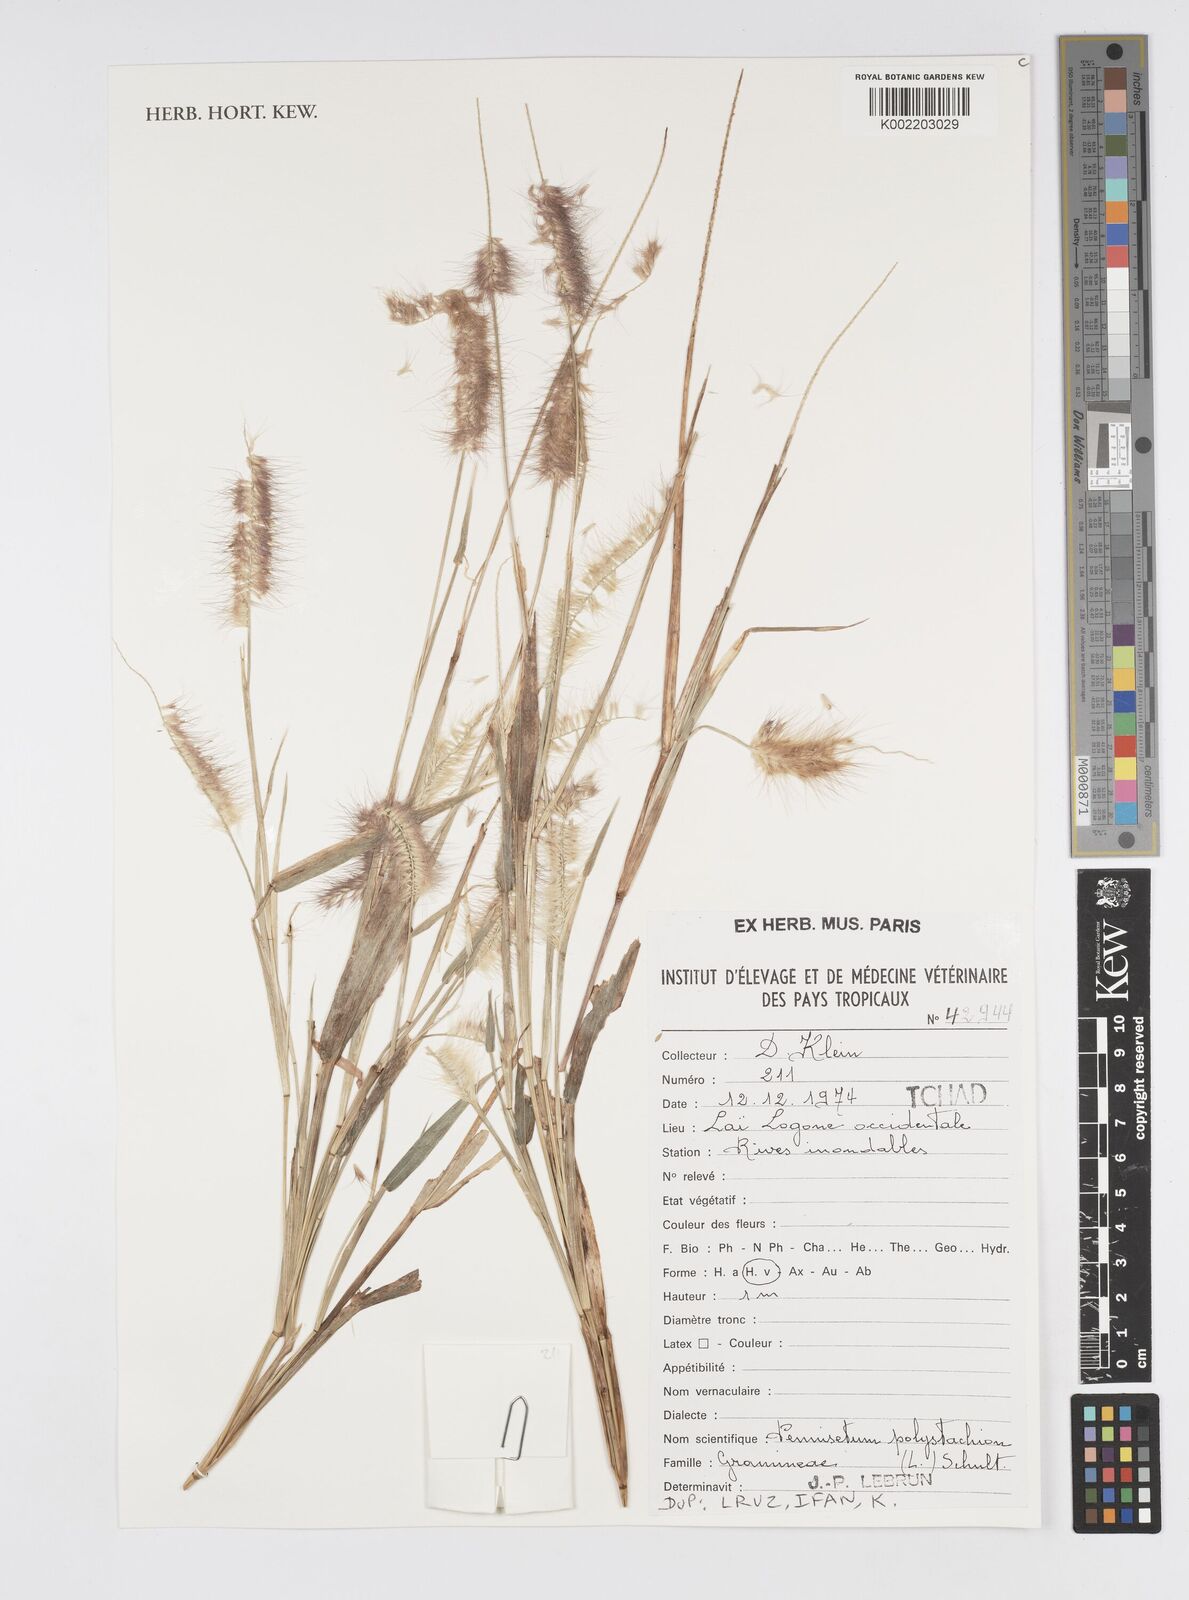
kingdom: Plantae
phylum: Tracheophyta
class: Liliopsida
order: Poales
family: Poaceae
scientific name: Poaceae
